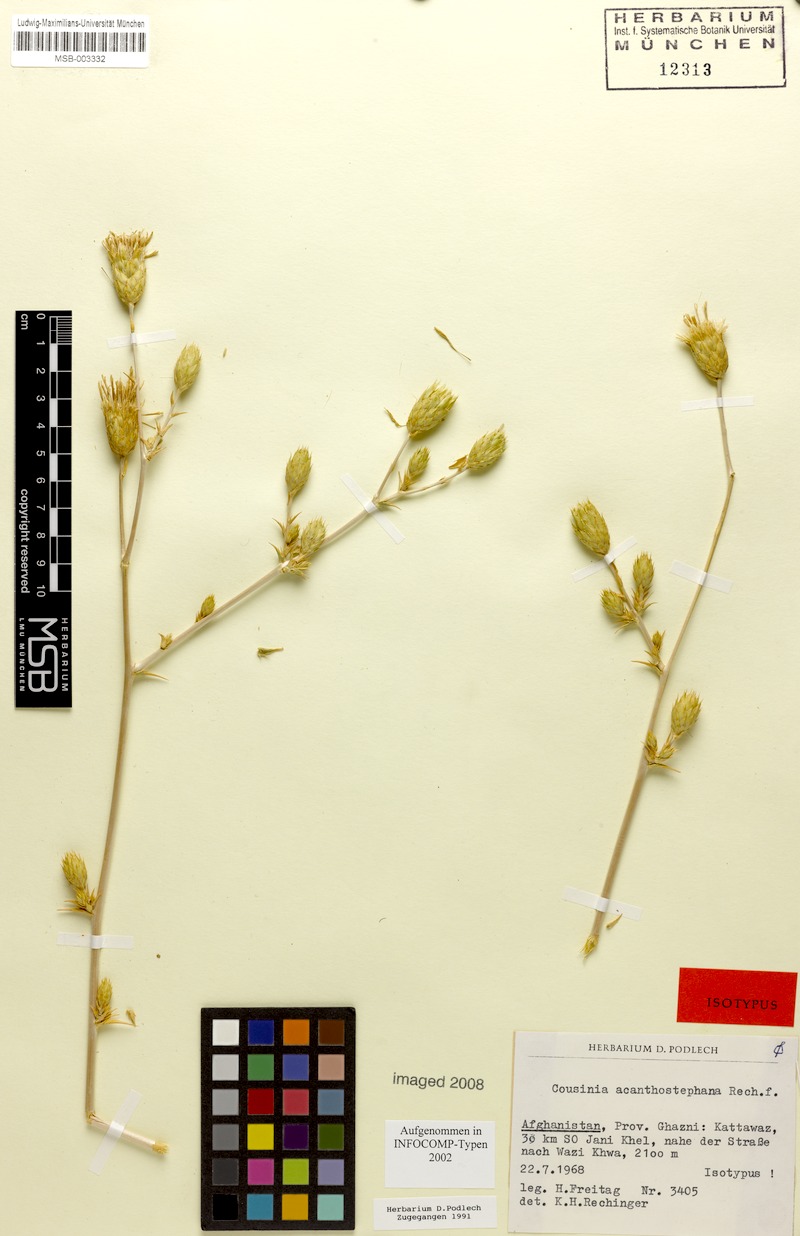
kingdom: Plantae
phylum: Tracheophyta
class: Magnoliopsida
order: Asterales
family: Asteraceae
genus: Cousinia
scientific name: Cousinia acanthostephana
